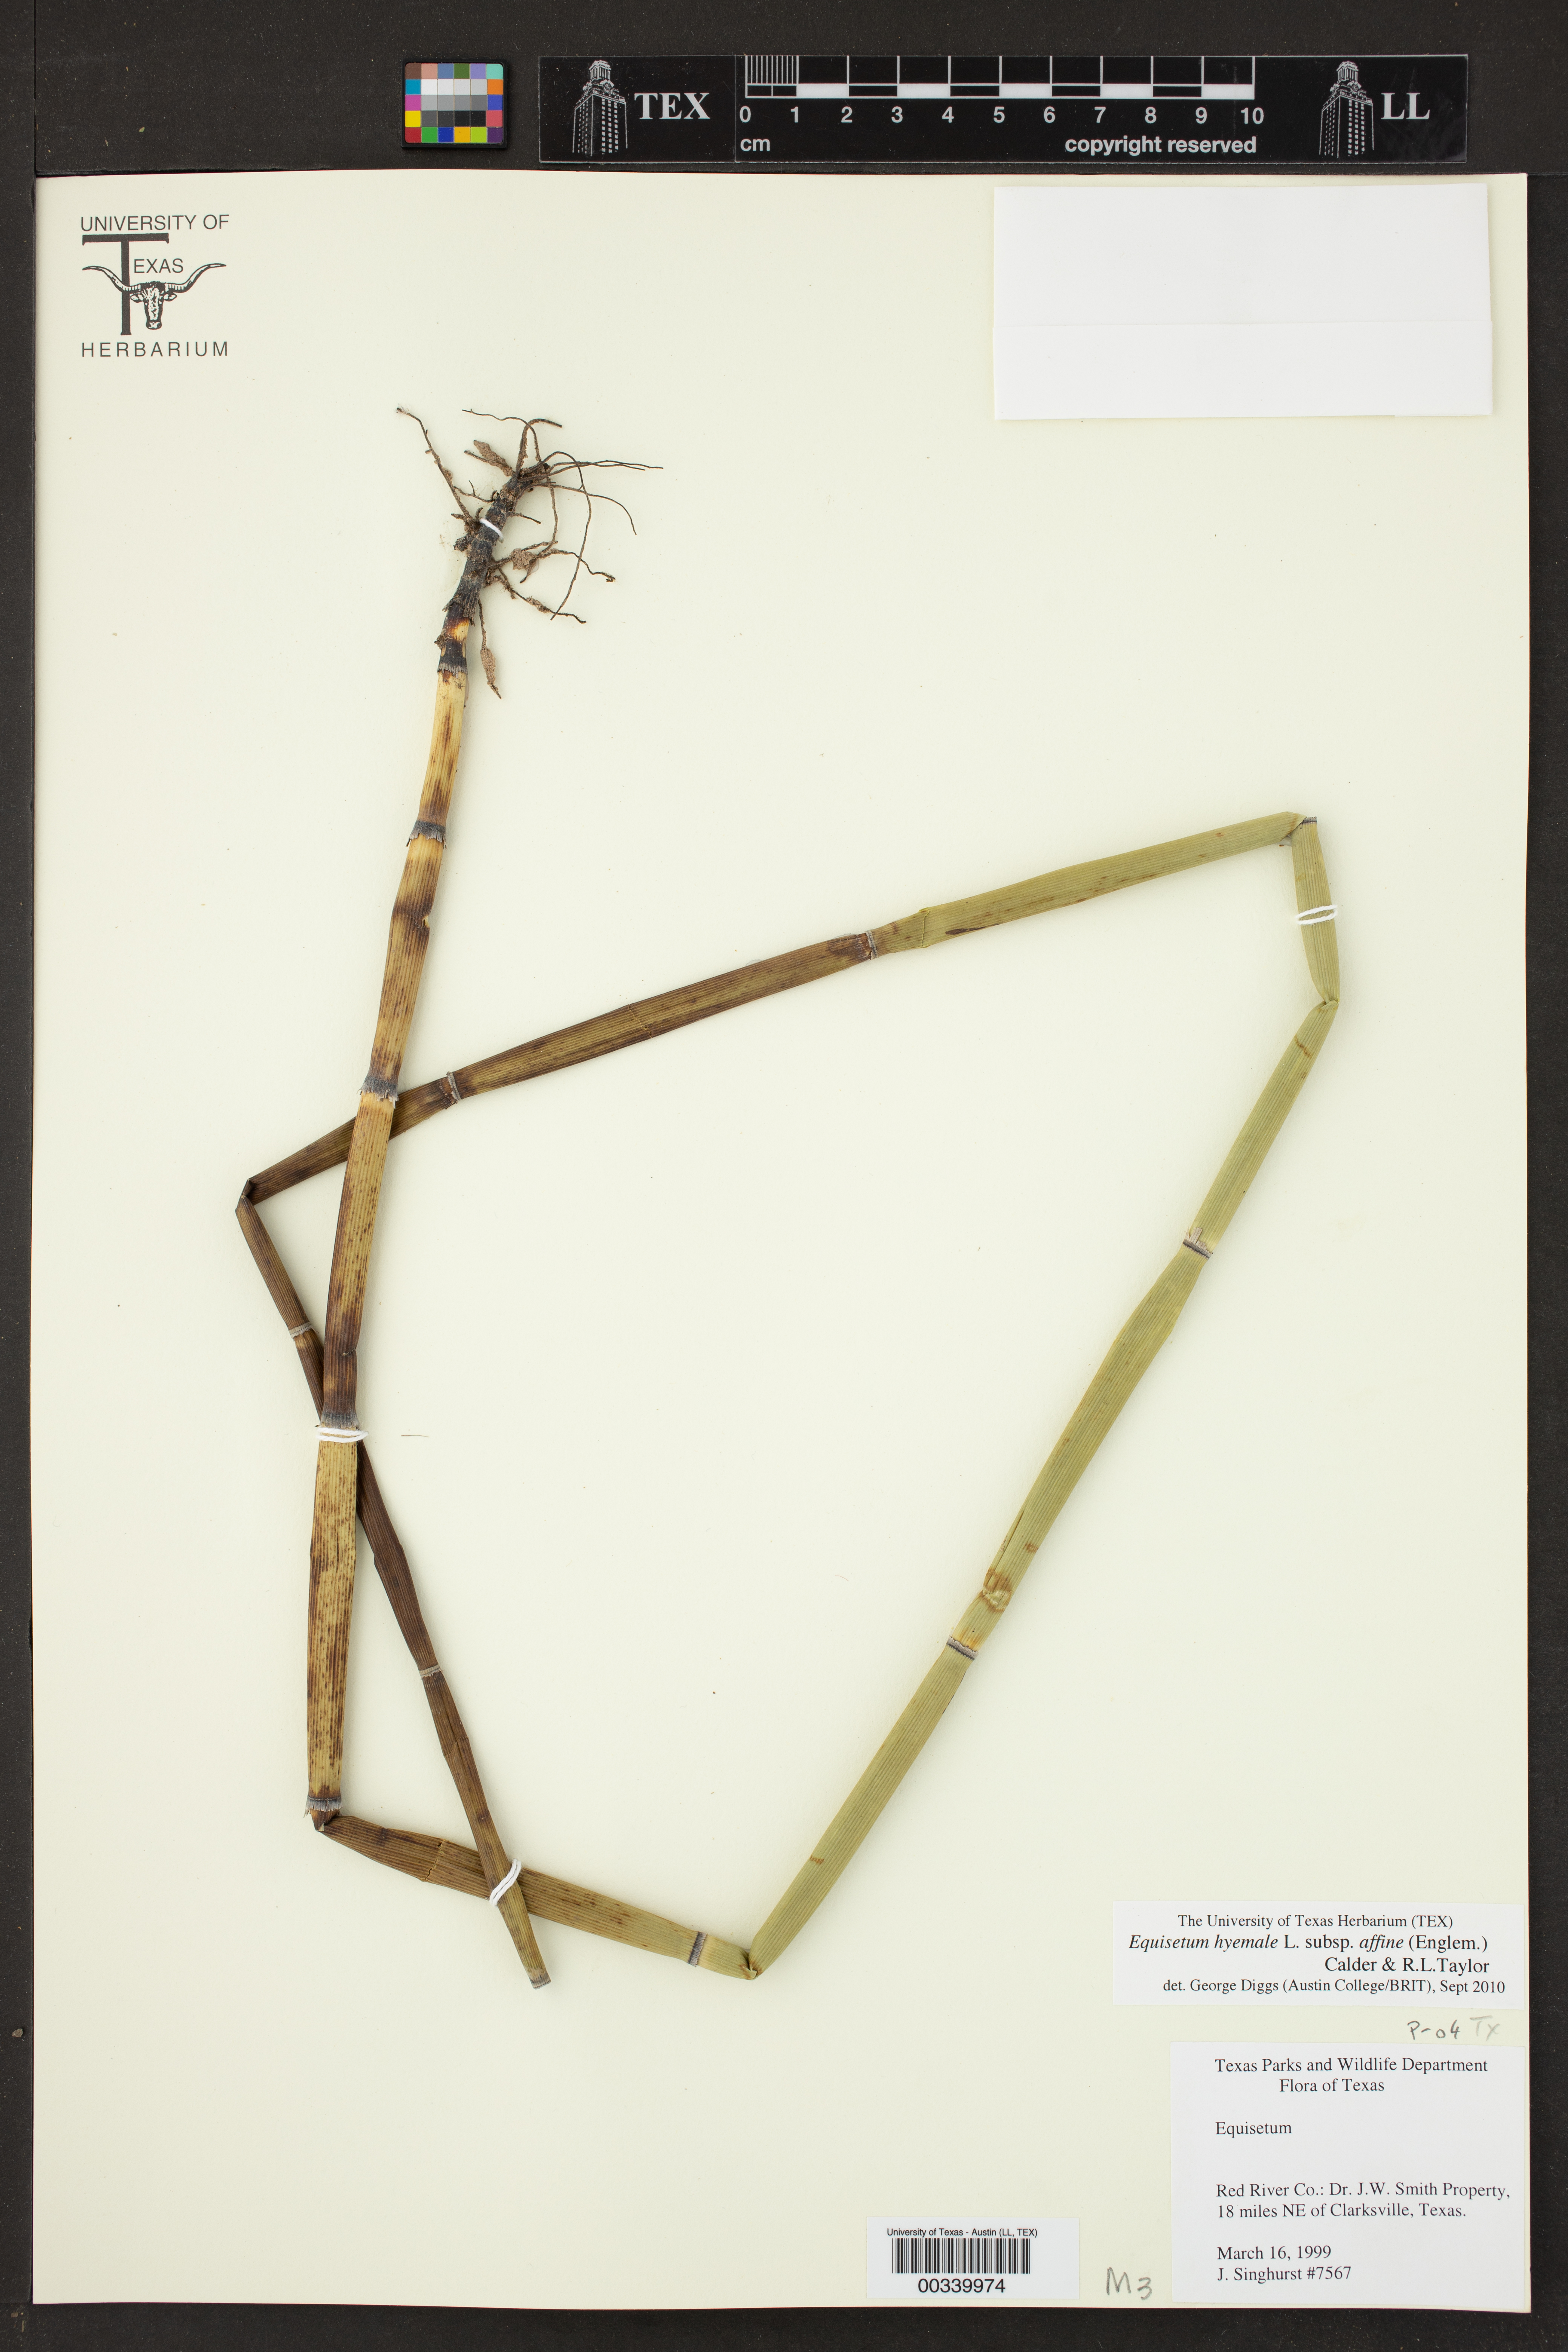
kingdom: Plantae
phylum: Tracheophyta
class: Polypodiopsida
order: Equisetales
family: Equisetaceae
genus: Equisetum
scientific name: Equisetum hyemale
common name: Rough horsetail
